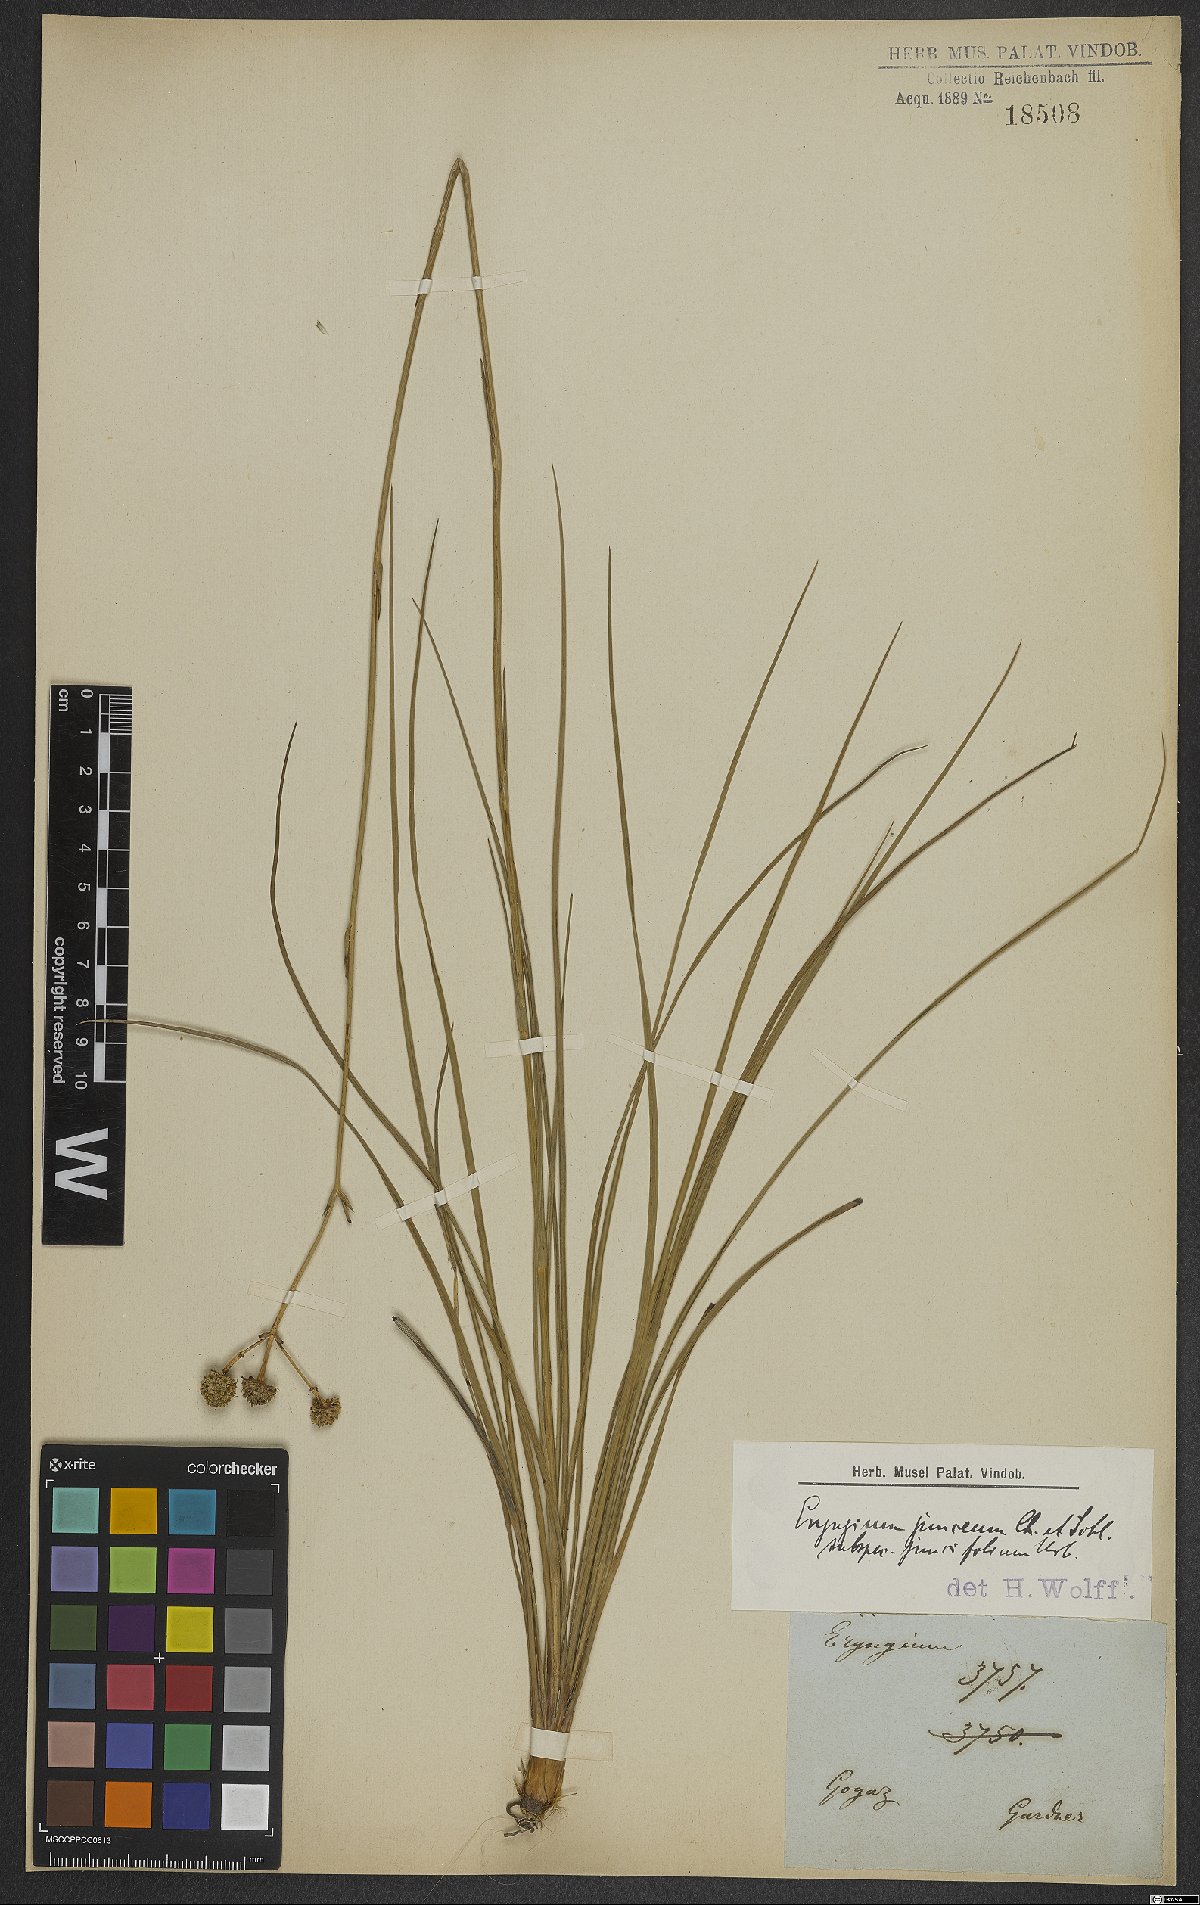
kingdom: Plantae
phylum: Tracheophyta
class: Magnoliopsida
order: Apiales
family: Apiaceae
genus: Eryngium
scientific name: Eryngium juncifolium
